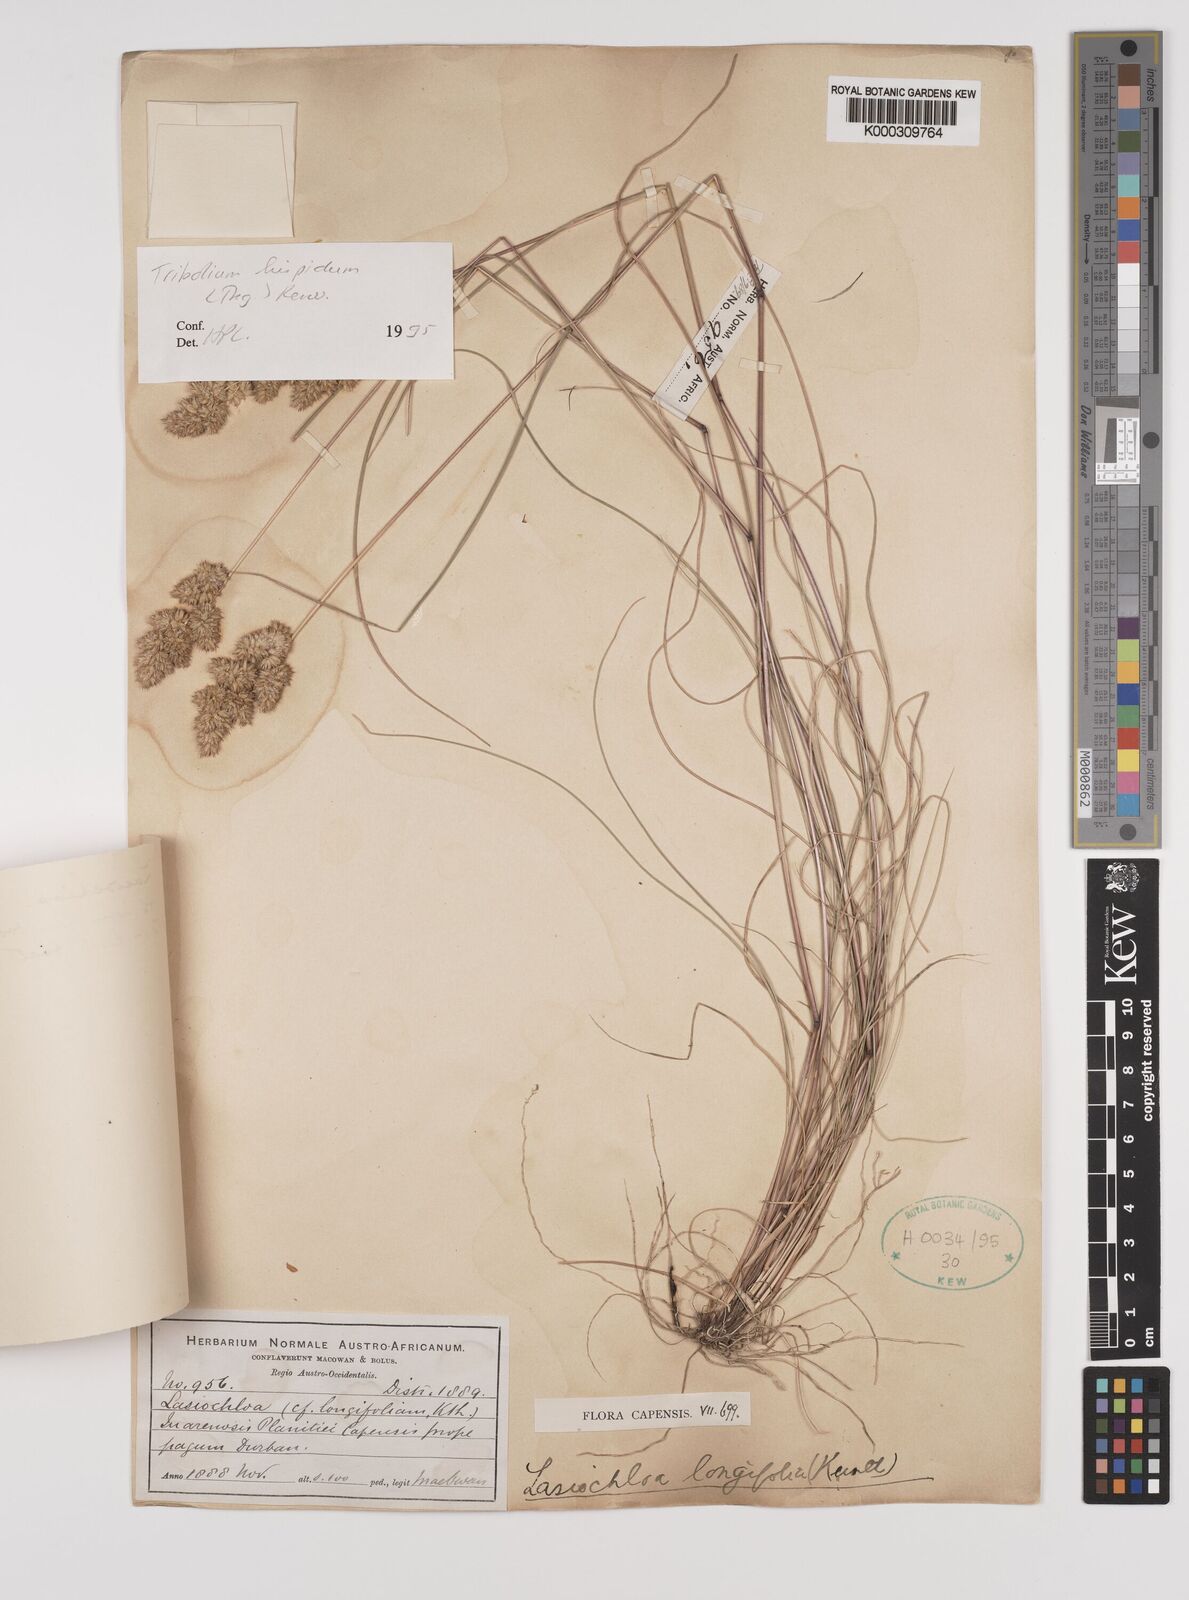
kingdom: Plantae
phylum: Tracheophyta
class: Liliopsida
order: Poales
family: Poaceae
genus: Tribolium
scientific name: Tribolium hispidum
